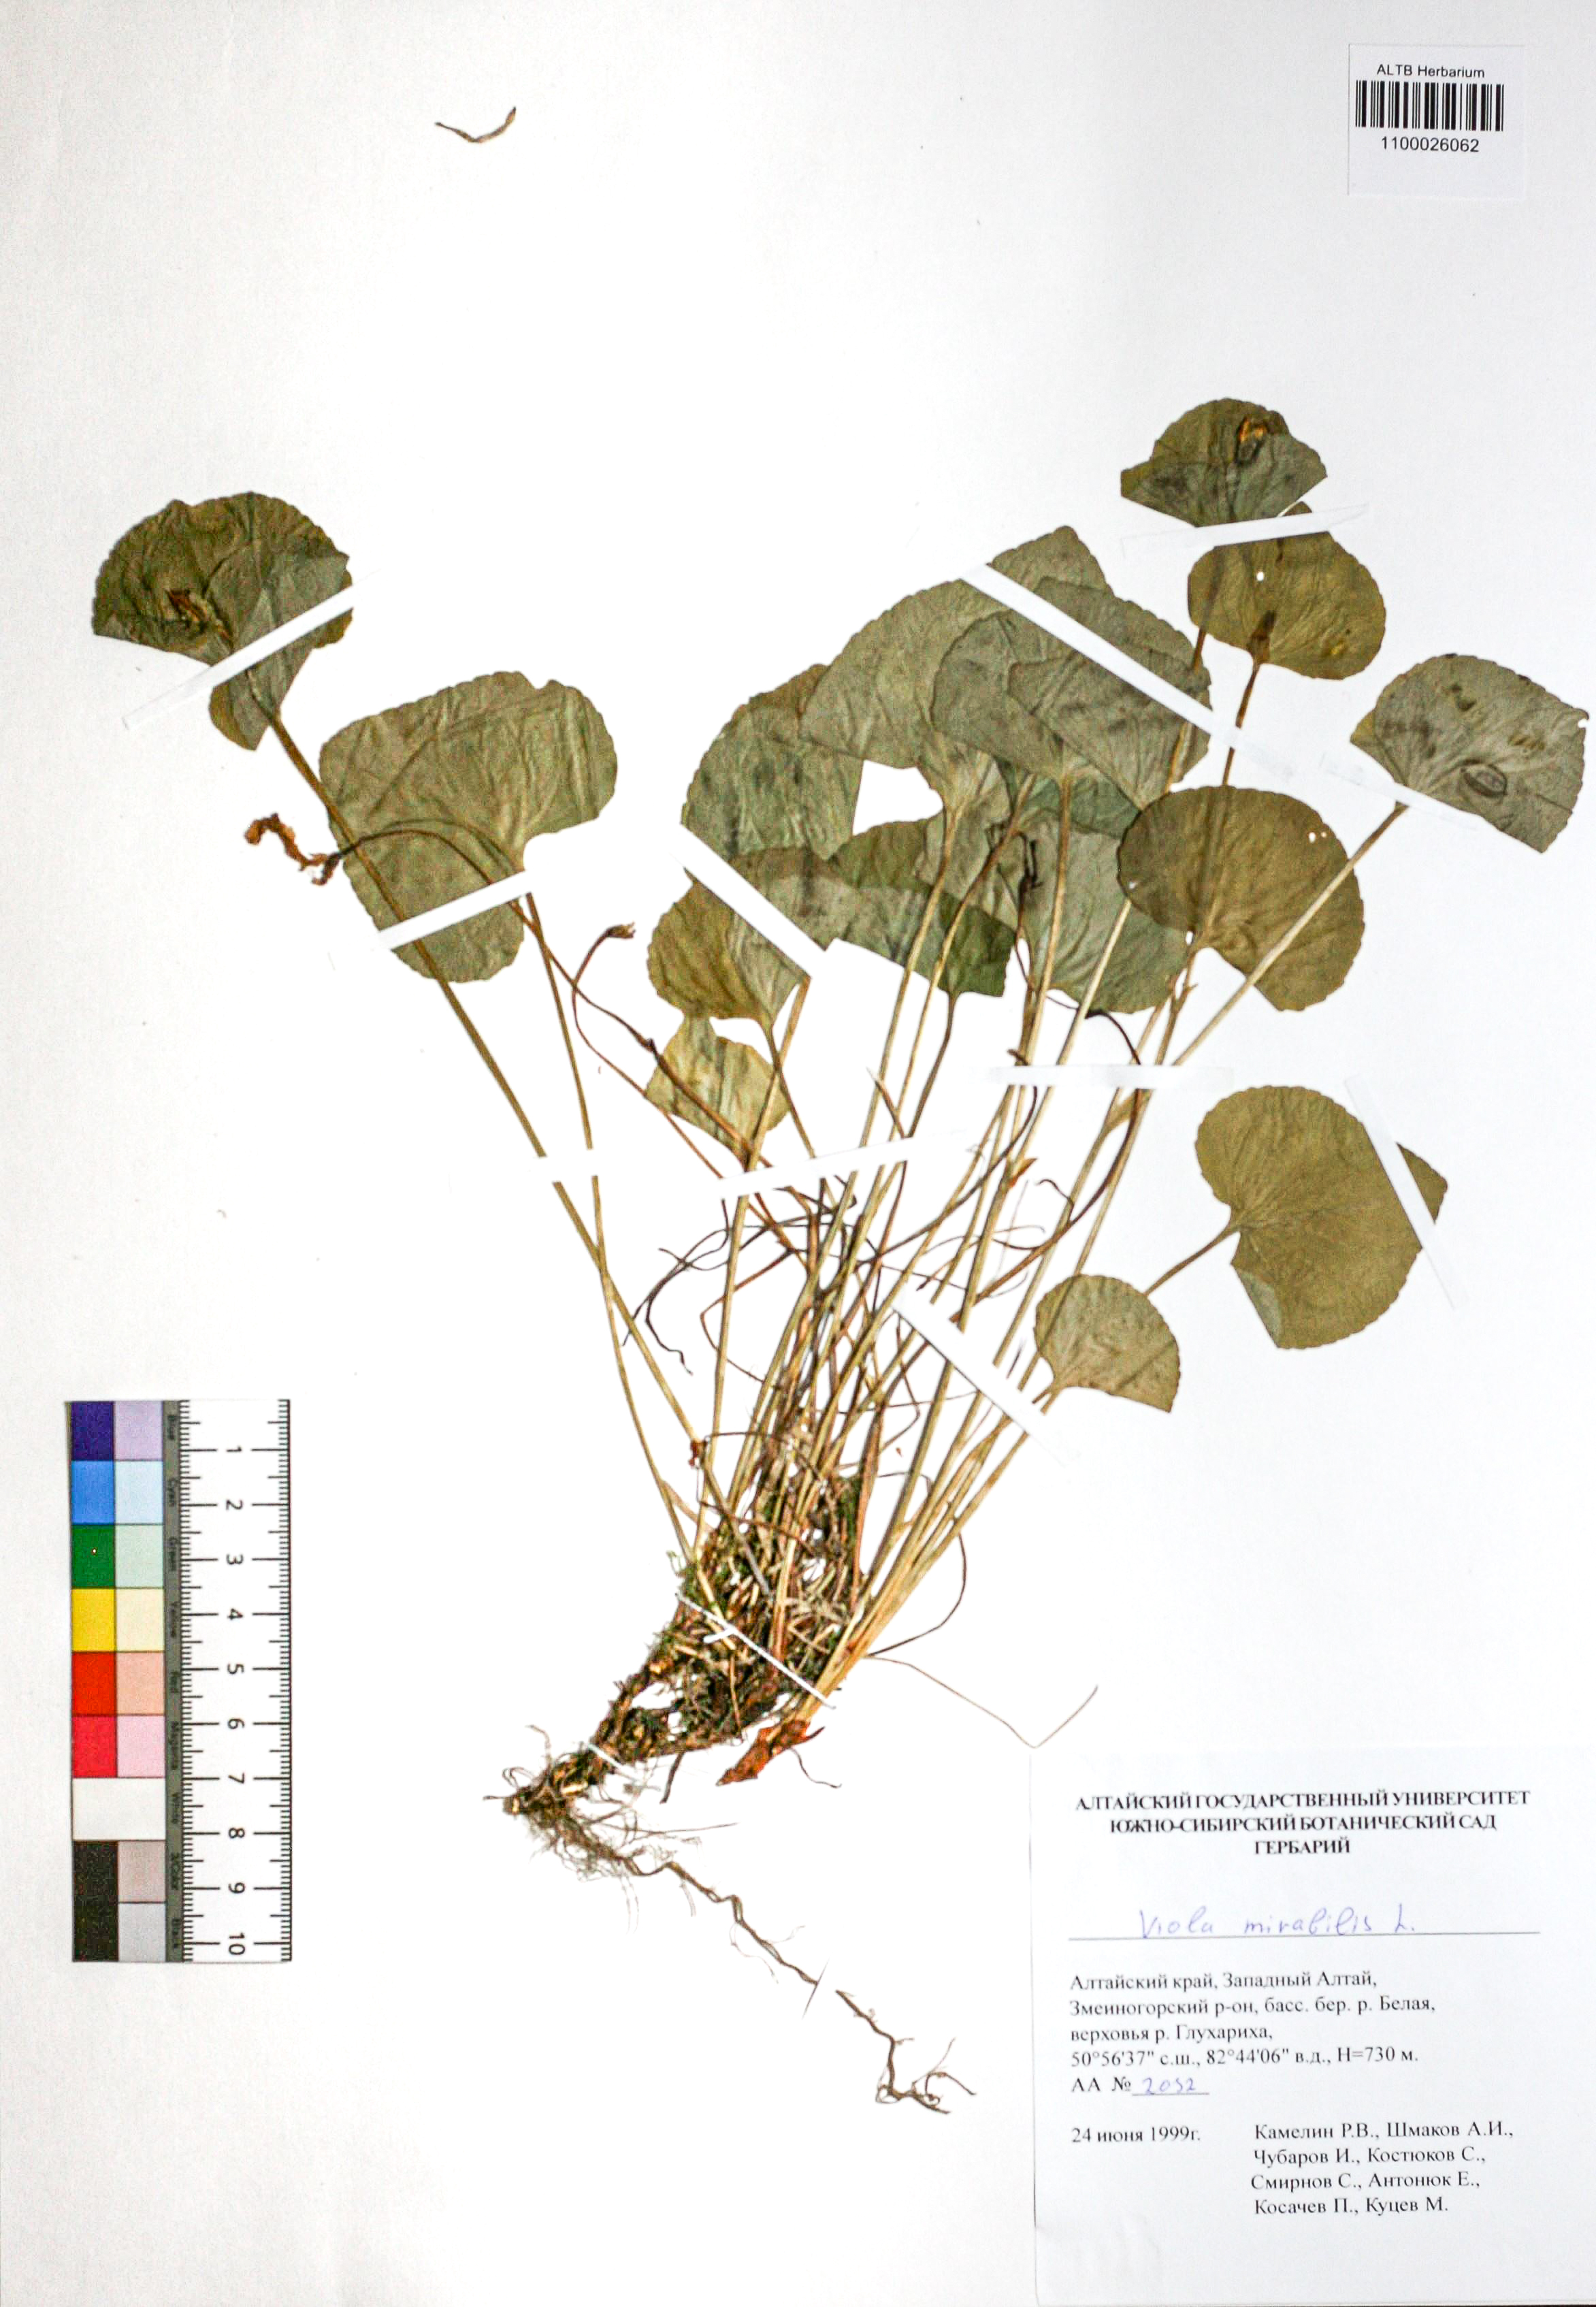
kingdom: Plantae
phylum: Tracheophyta
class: Magnoliopsida
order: Malpighiales
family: Violaceae
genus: Viola
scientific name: Viola mirabilis
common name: Wonder violet
